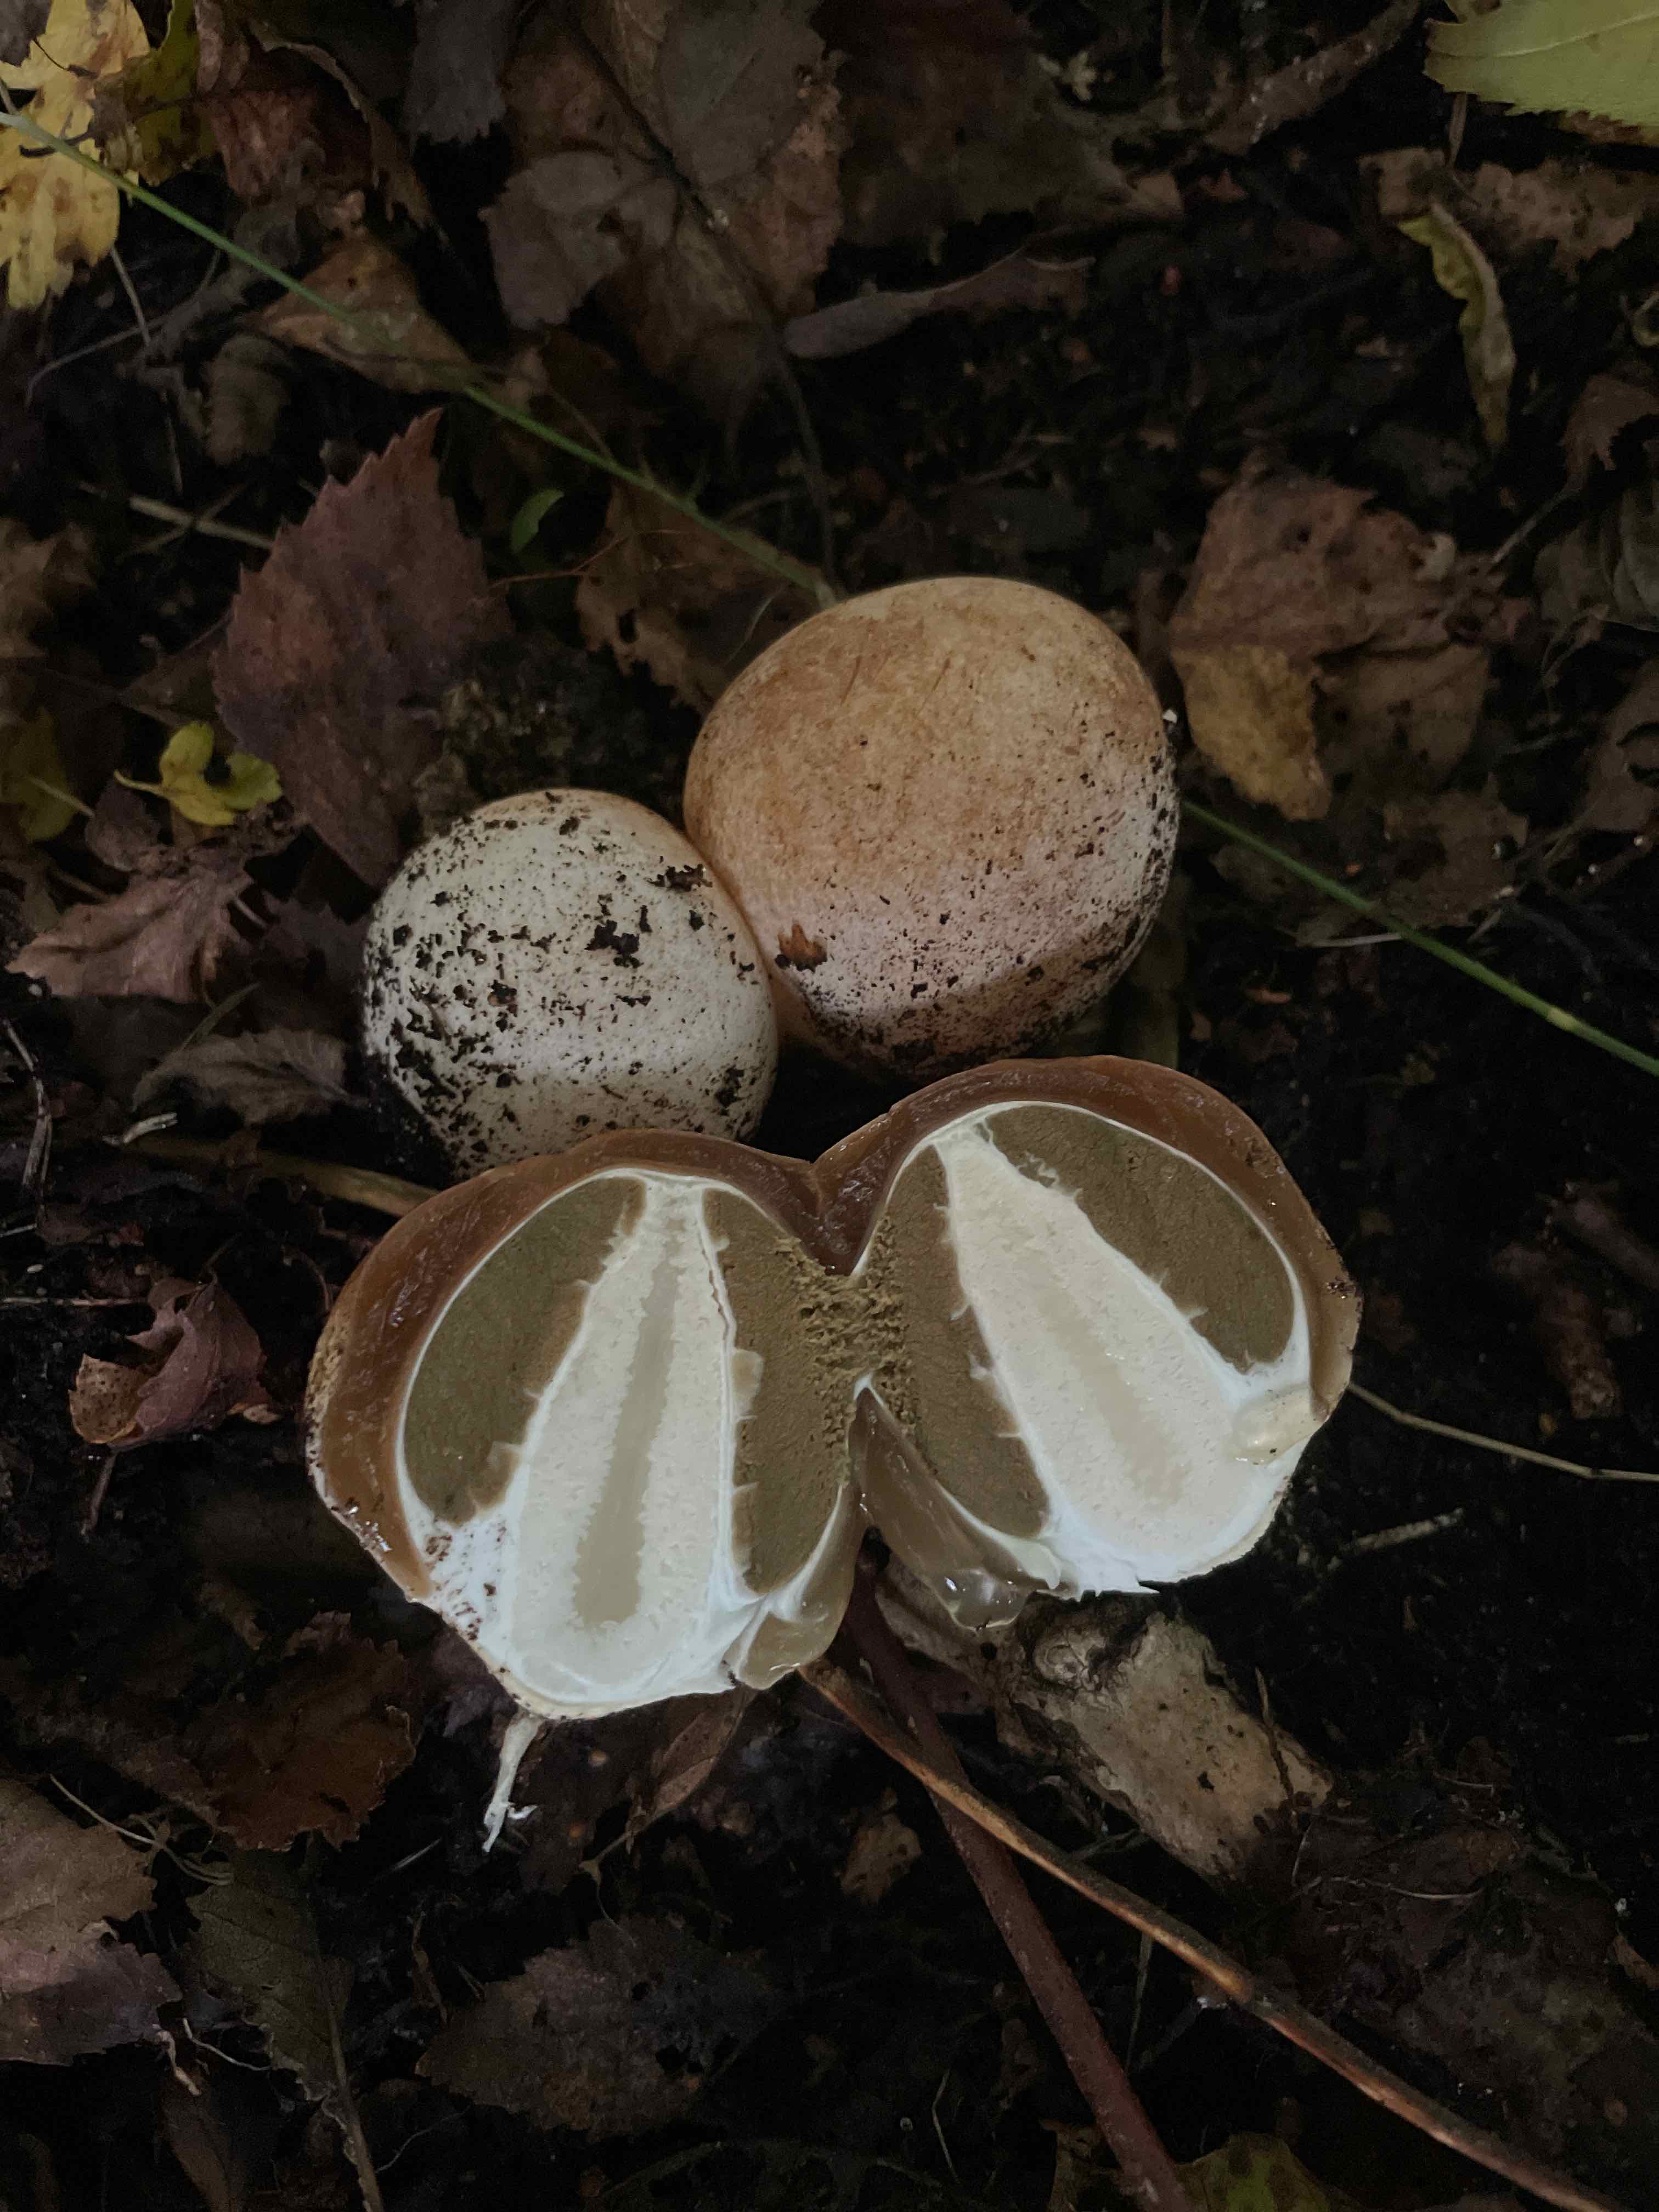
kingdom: Fungi
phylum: Basidiomycota
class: Agaricomycetes
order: Phallales
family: Phallaceae
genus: Phallus
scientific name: Phallus impudicus
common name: almindelig stinksvamp
